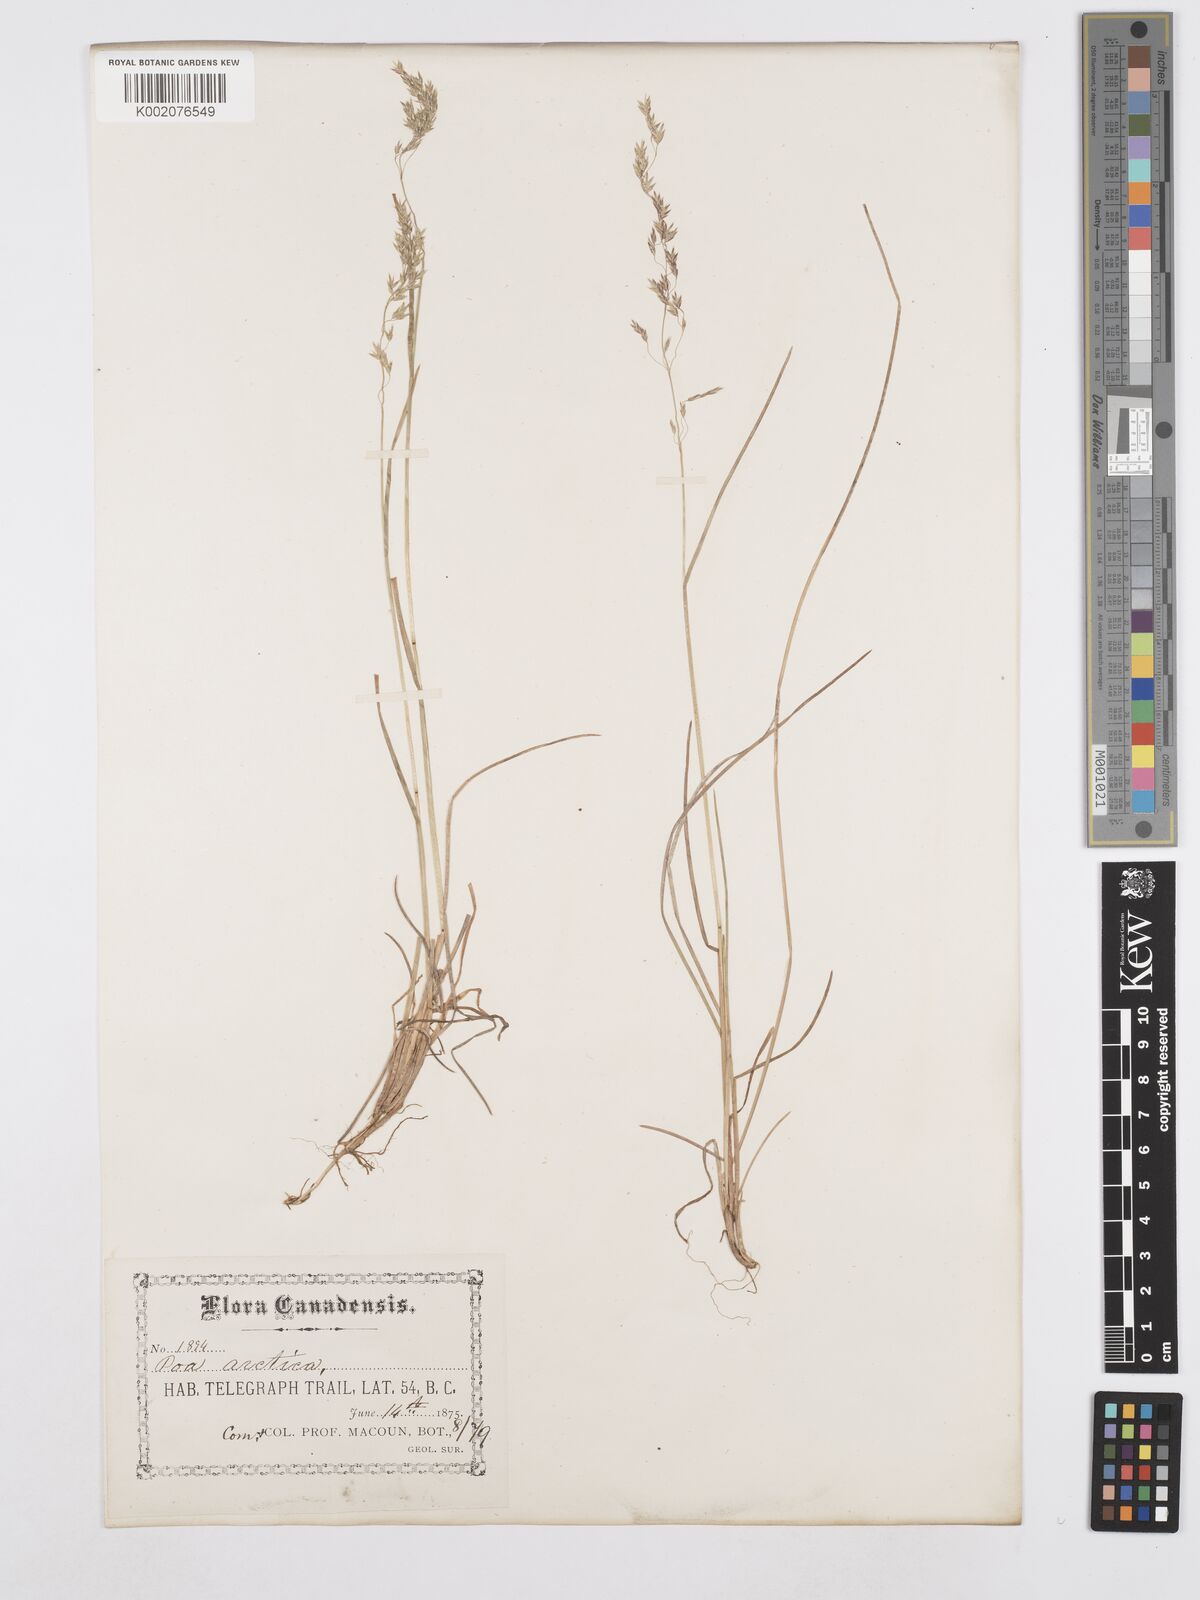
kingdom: Plantae
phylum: Tracheophyta
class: Liliopsida
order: Poales
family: Poaceae
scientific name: Poaceae
